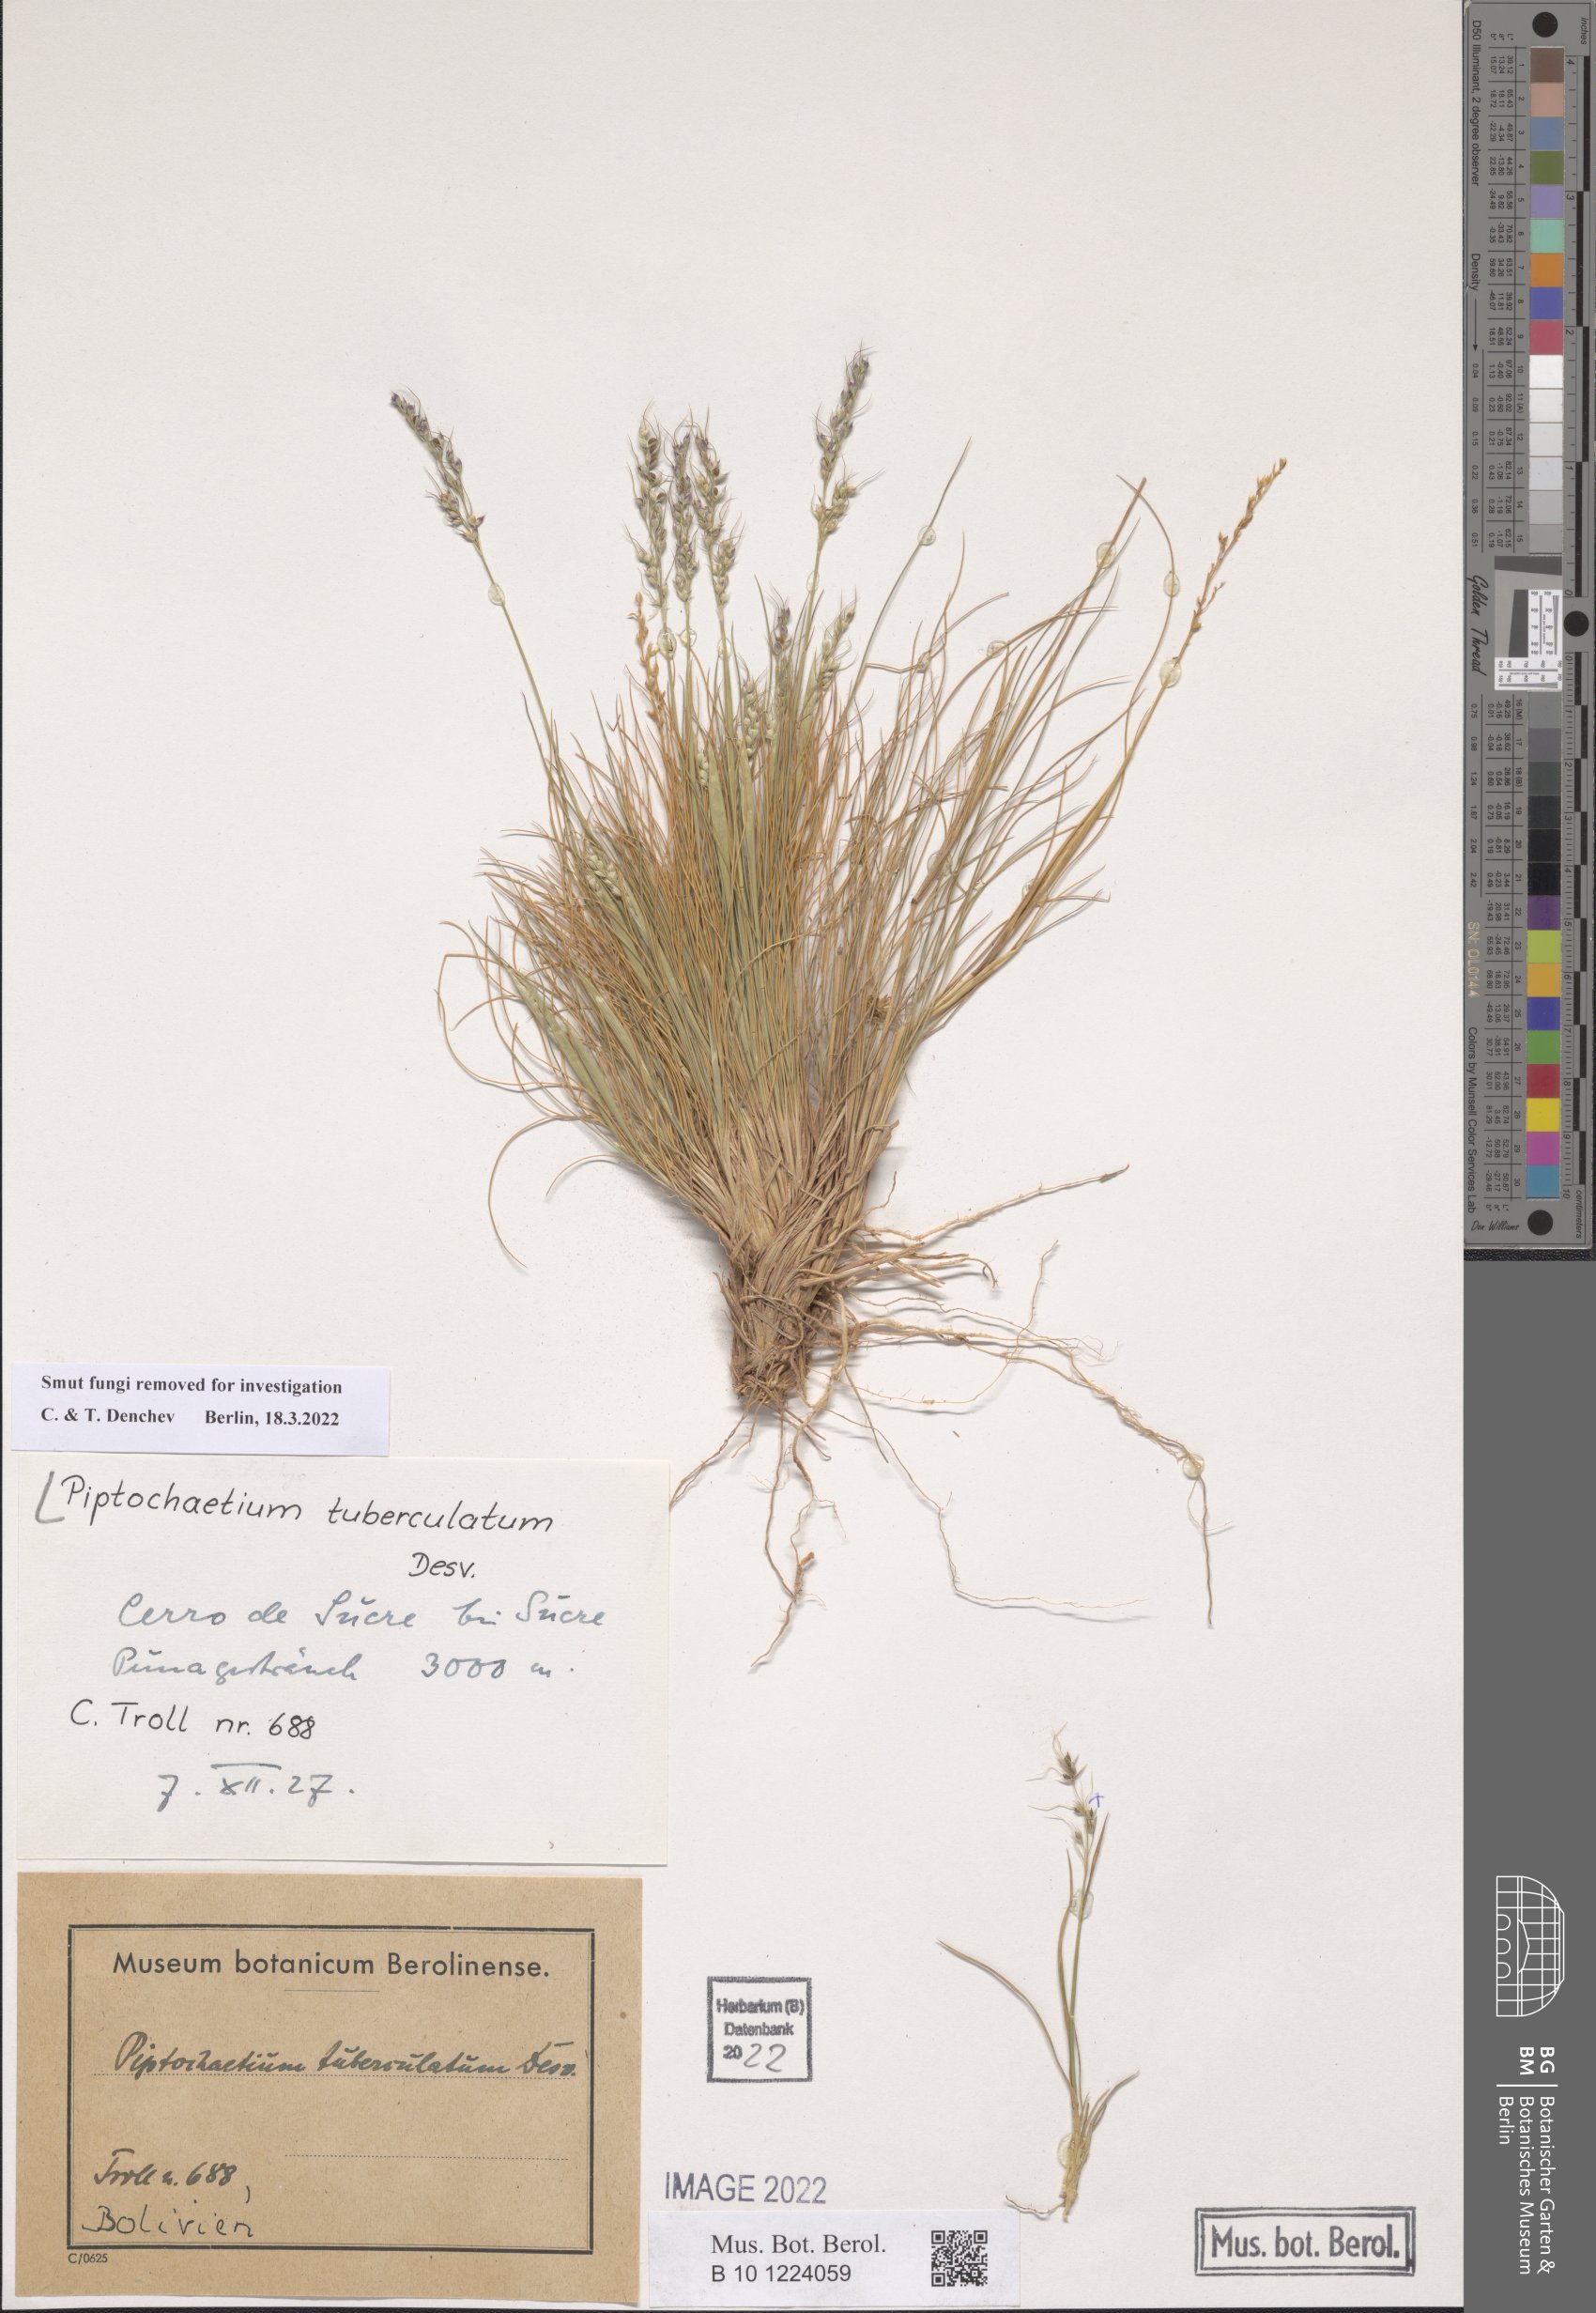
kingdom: Plantae
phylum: Tracheophyta
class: Liliopsida
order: Poales
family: Poaceae
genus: Piptochaetium
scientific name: Piptochaetium montevidense
